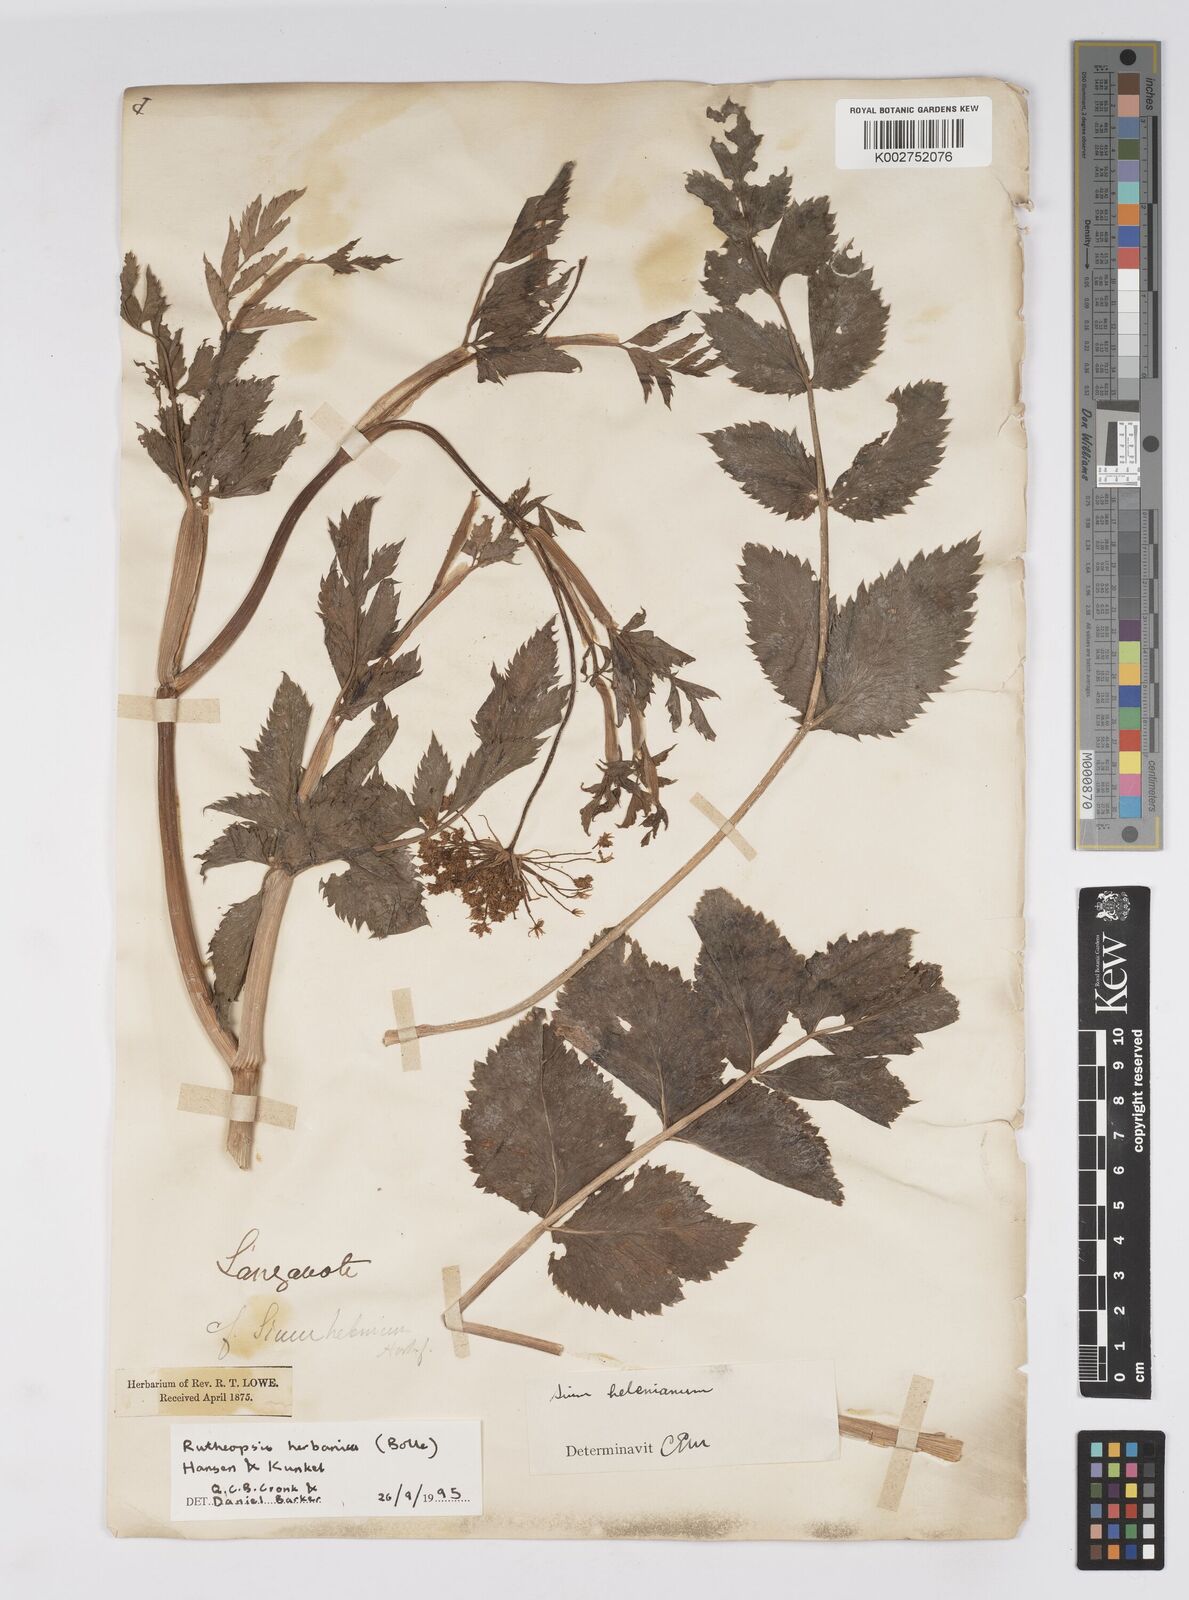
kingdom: Plantae
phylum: Tracheophyta
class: Magnoliopsida
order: Apiales
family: Apiaceae
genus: Rutheopsis
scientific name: Rutheopsis herbanica
